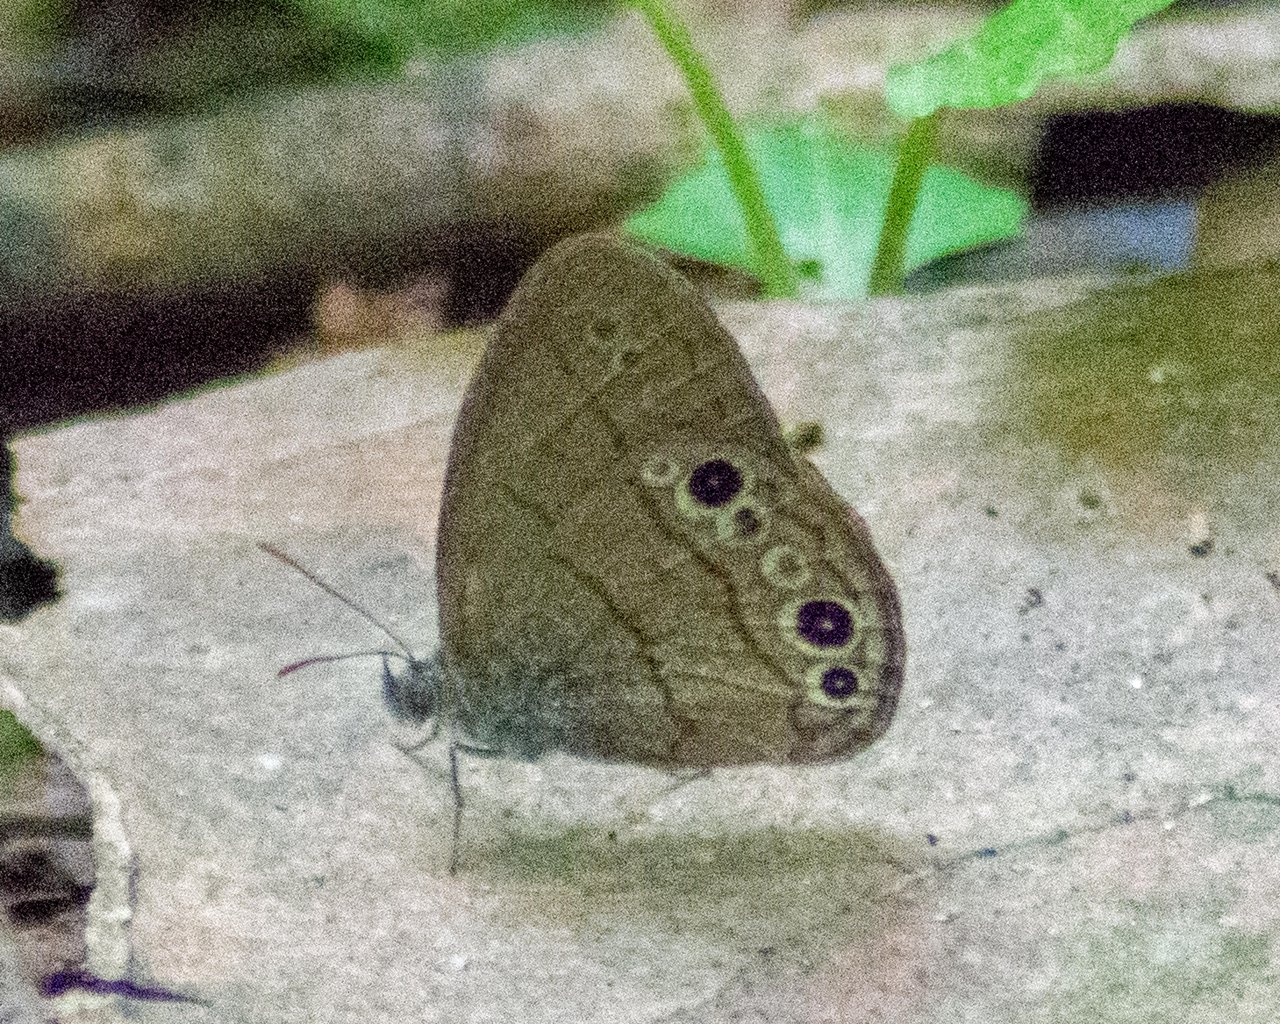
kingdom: Animalia
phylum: Arthropoda
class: Insecta
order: Lepidoptera
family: Nymphalidae
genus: Hermeuptychia
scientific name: Hermeuptychia intricata
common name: Intricate Satyr
